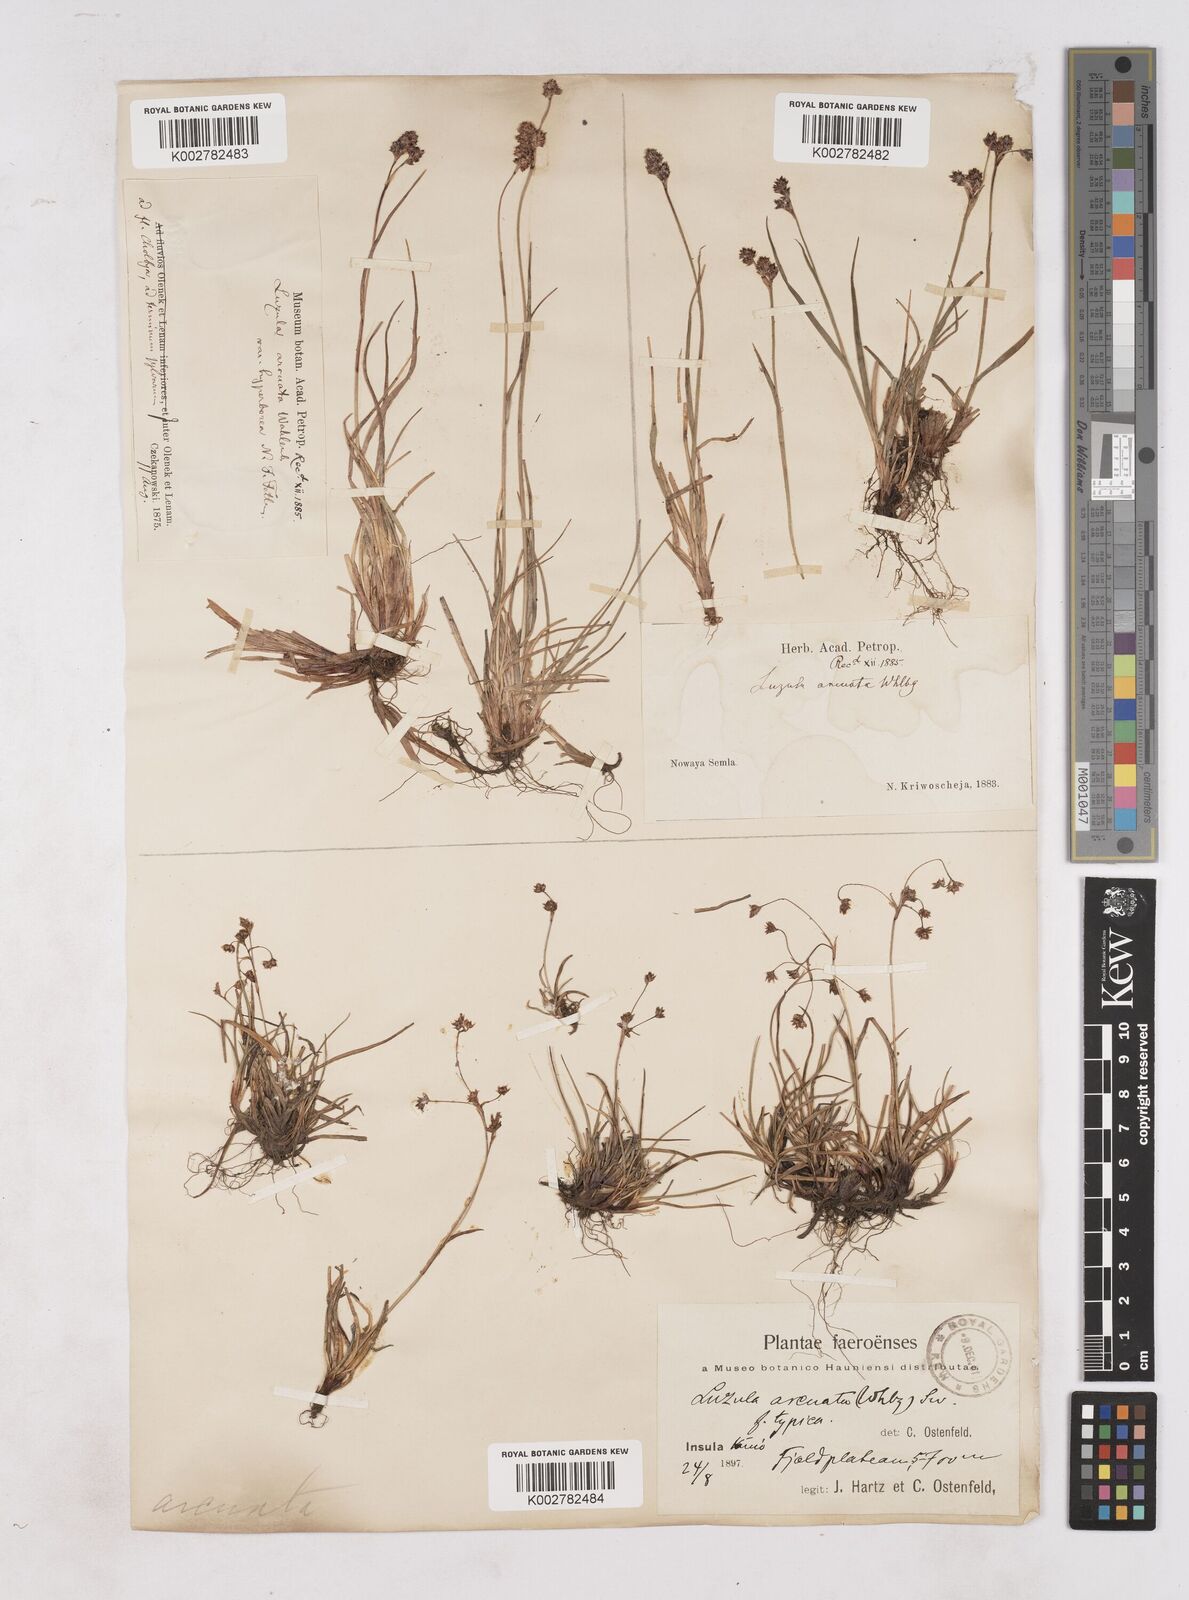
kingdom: Plantae
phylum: Tracheophyta
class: Liliopsida
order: Poales
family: Juncaceae
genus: Luzula
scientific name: Luzula arcuata
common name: Curved wood-rush
